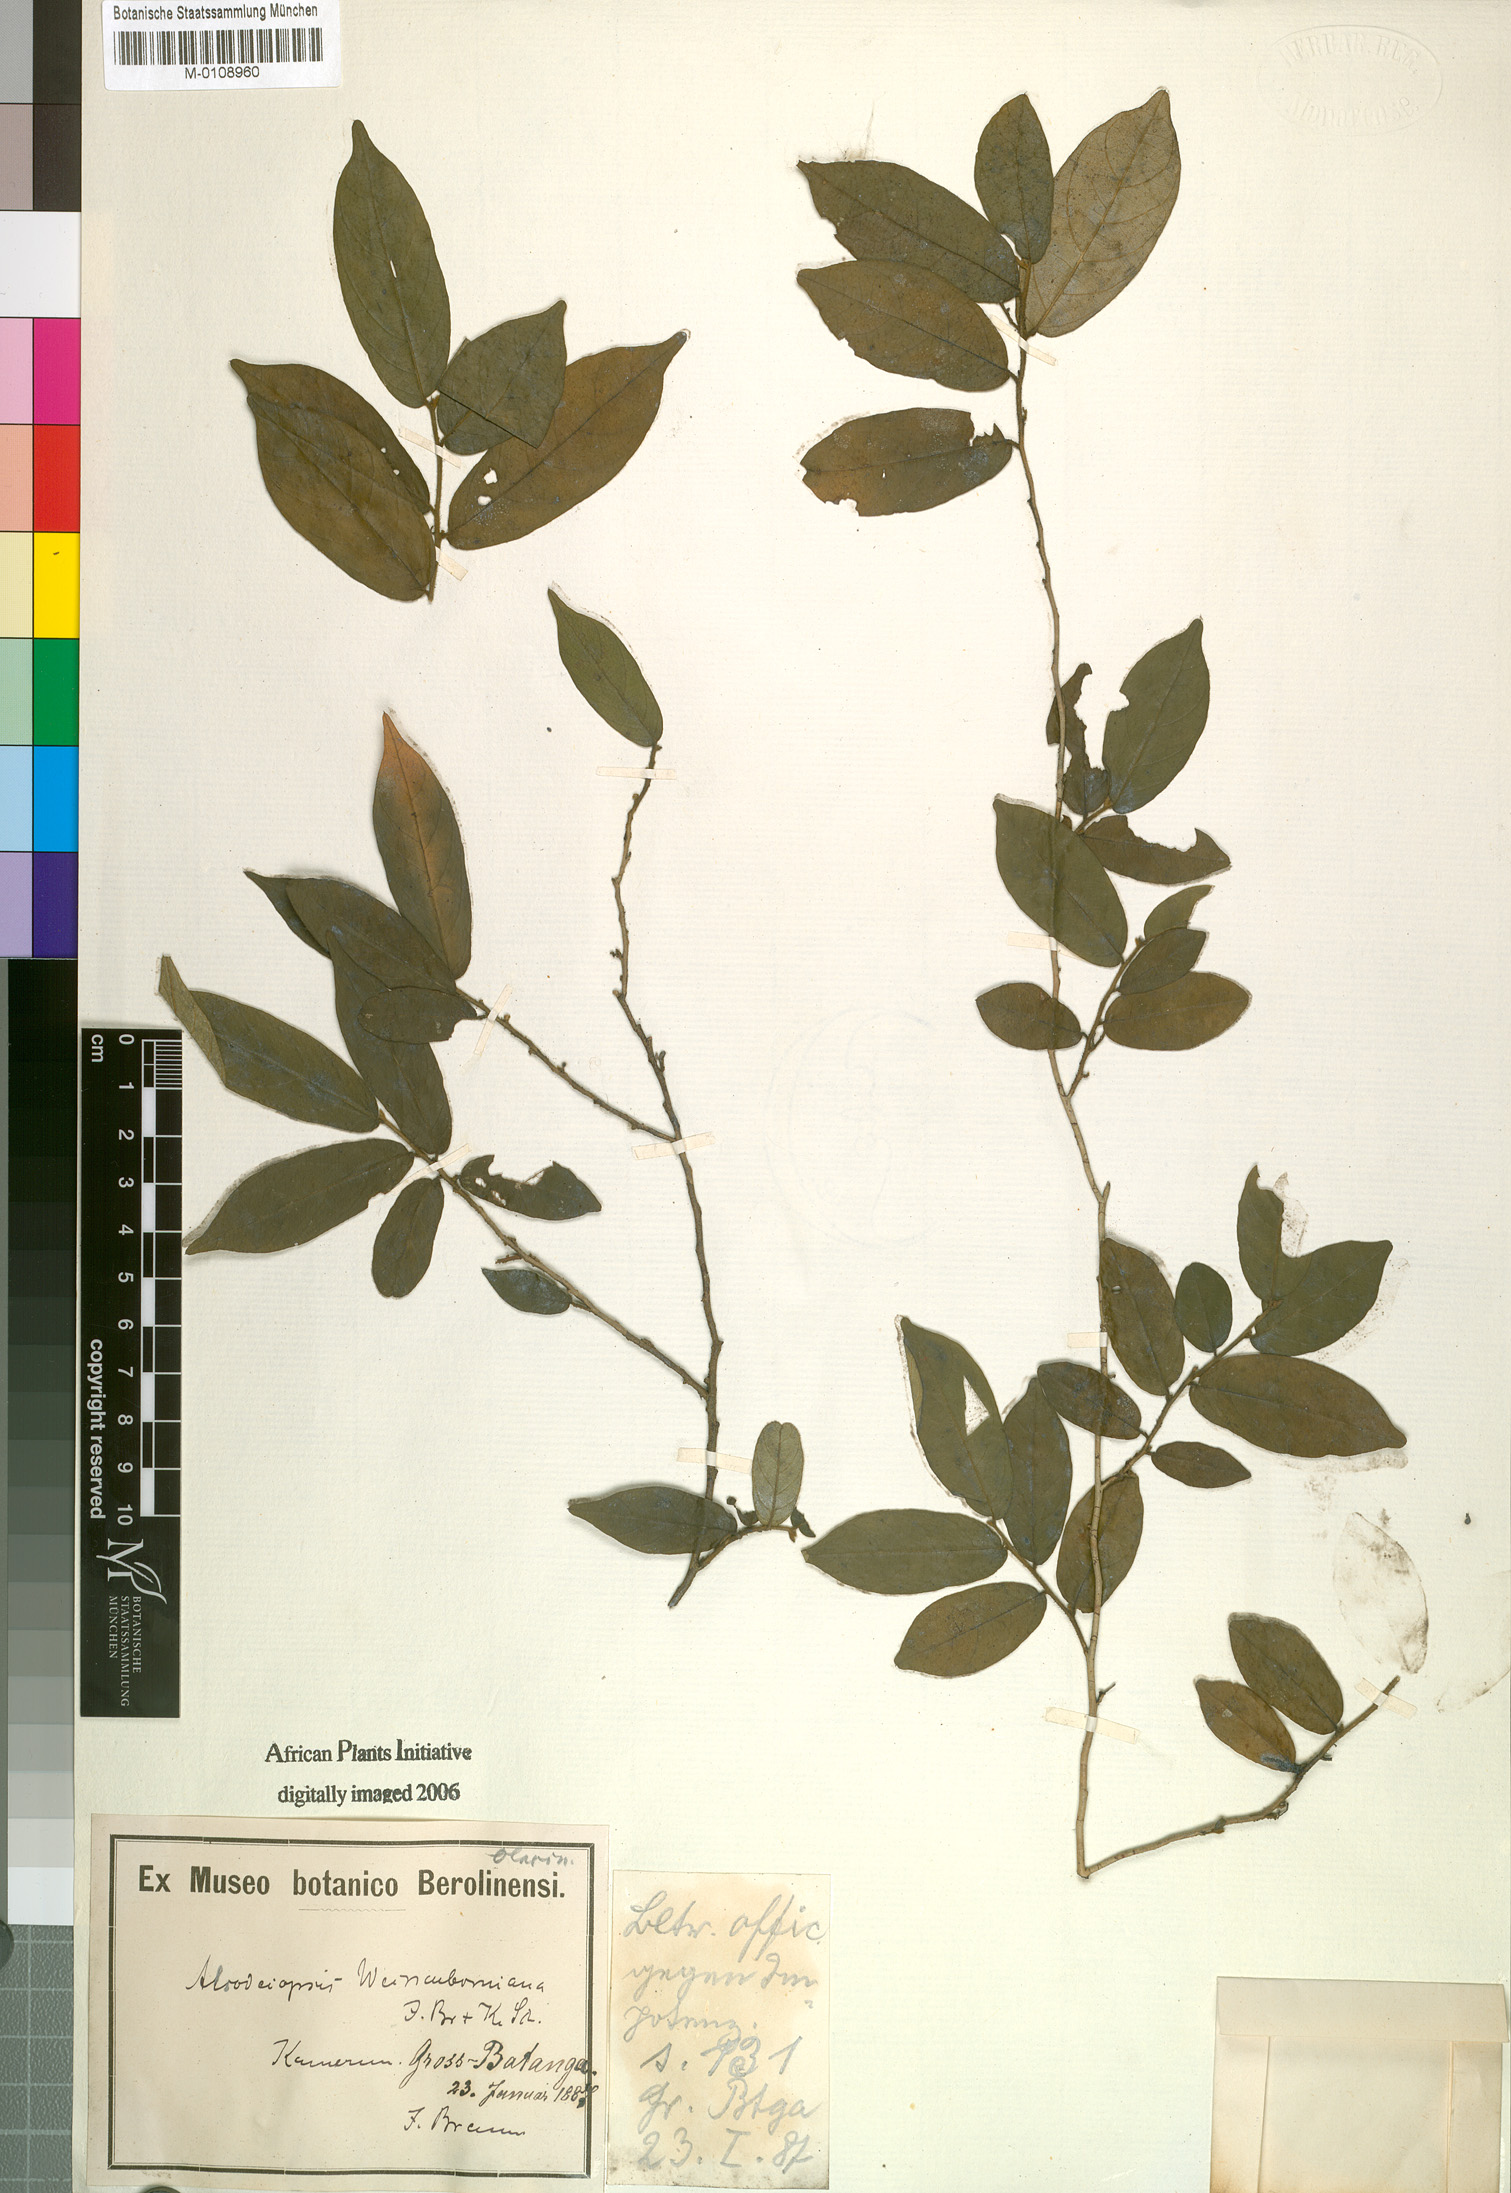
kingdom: Plantae
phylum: Tracheophyta
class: Magnoliopsida
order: Icacinales
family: Icacinaceae
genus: Alsodeiopsis
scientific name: Alsodeiopsis mannii
